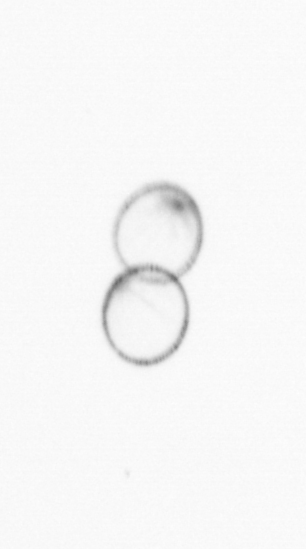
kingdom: Chromista
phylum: Myzozoa
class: Dinophyceae
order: Noctilucales
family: Noctilucaceae
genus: Noctiluca
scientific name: Noctiluca scintillans
